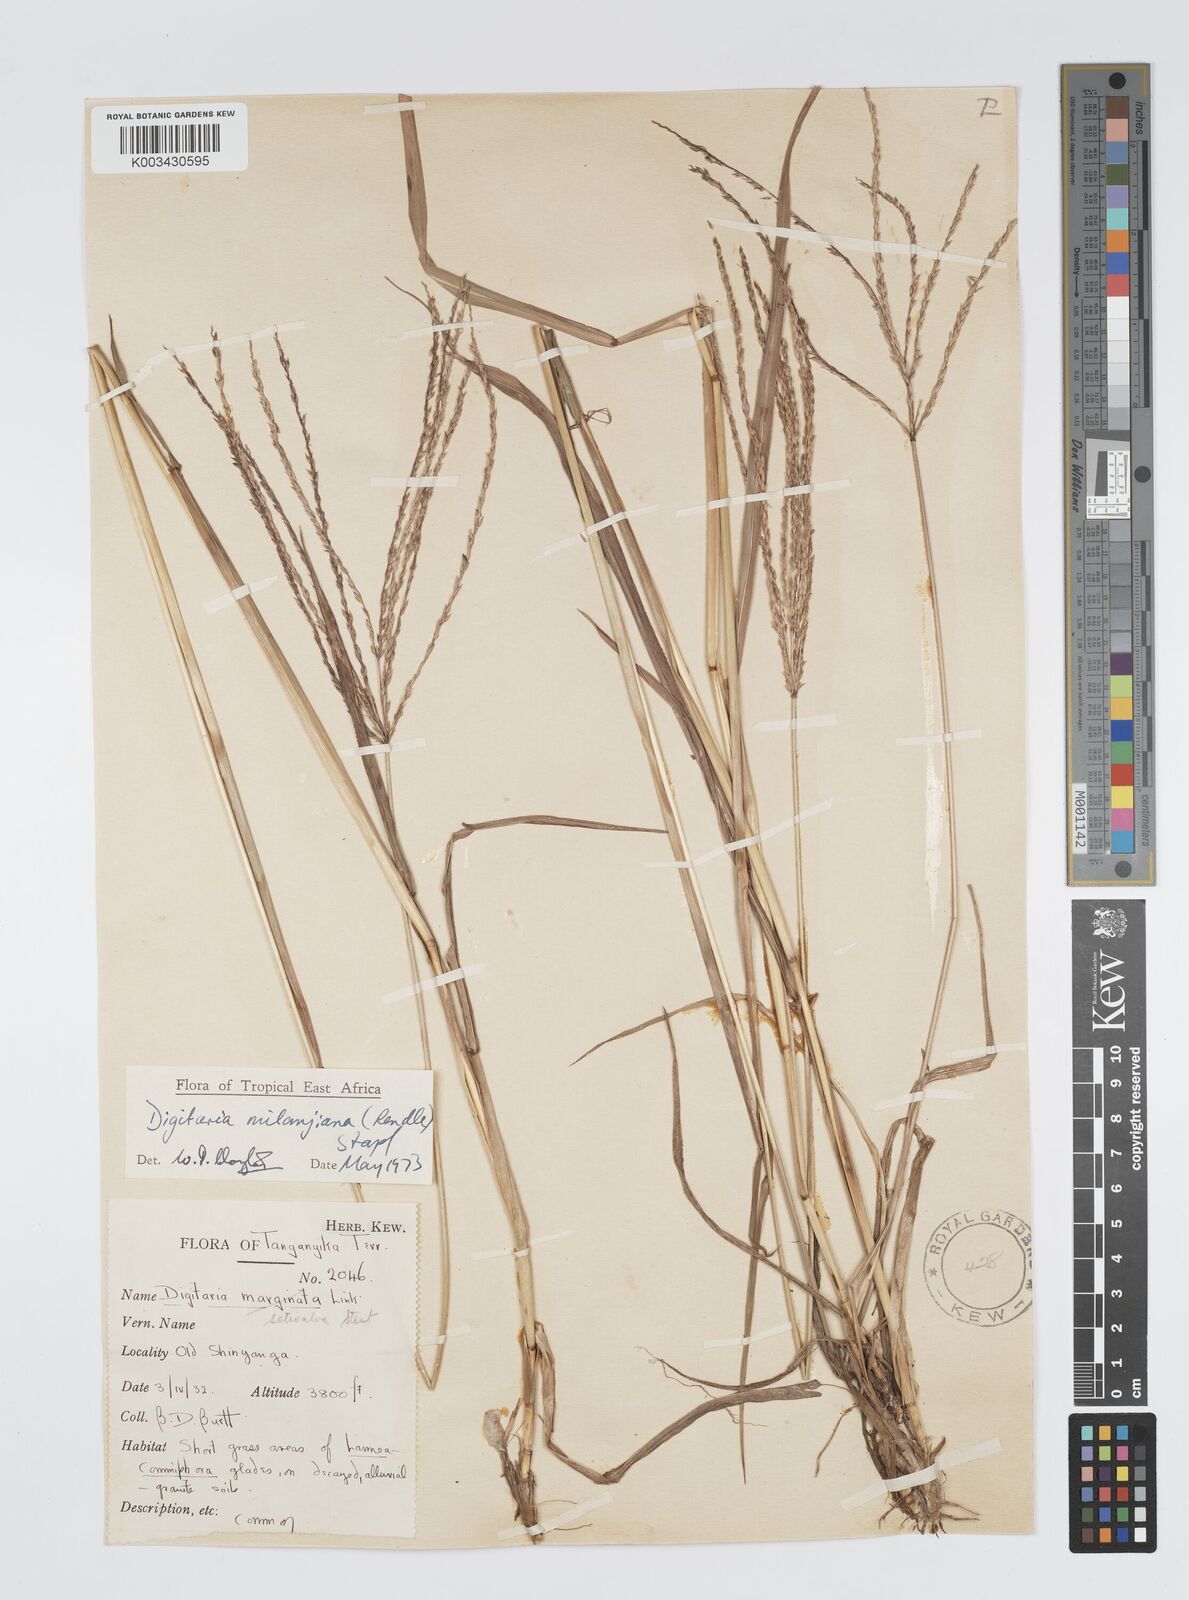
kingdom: Plantae
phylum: Tracheophyta
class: Liliopsida
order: Poales
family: Poaceae
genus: Digitaria
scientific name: Digitaria milanjiana
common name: Madagascar crabgrass
